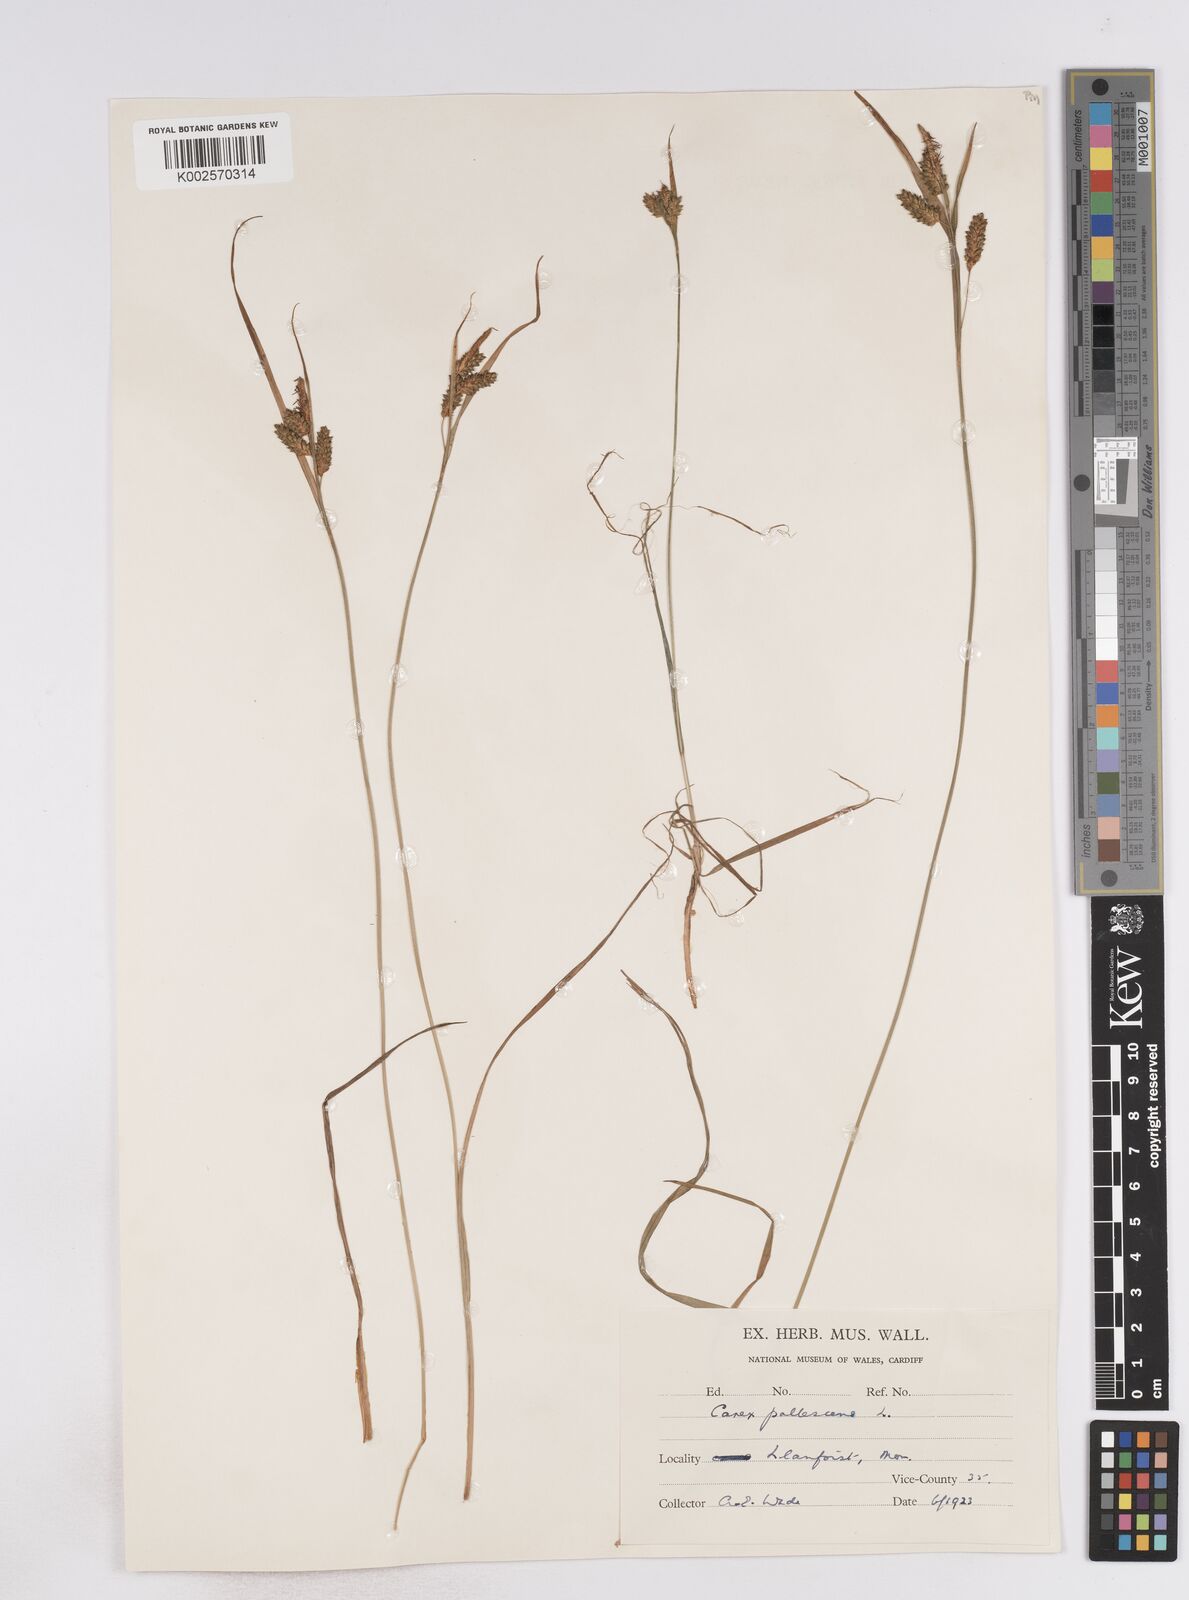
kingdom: Plantae
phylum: Tracheophyta
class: Liliopsida
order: Poales
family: Cyperaceae
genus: Carex
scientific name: Carex pallescens
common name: Pale sedge
